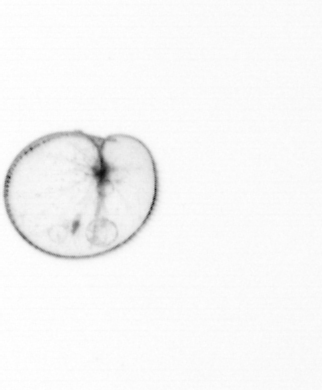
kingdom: Chromista
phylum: Myzozoa
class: Dinophyceae
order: Noctilucales
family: Noctilucaceae
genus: Noctiluca
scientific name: Noctiluca scintillans
